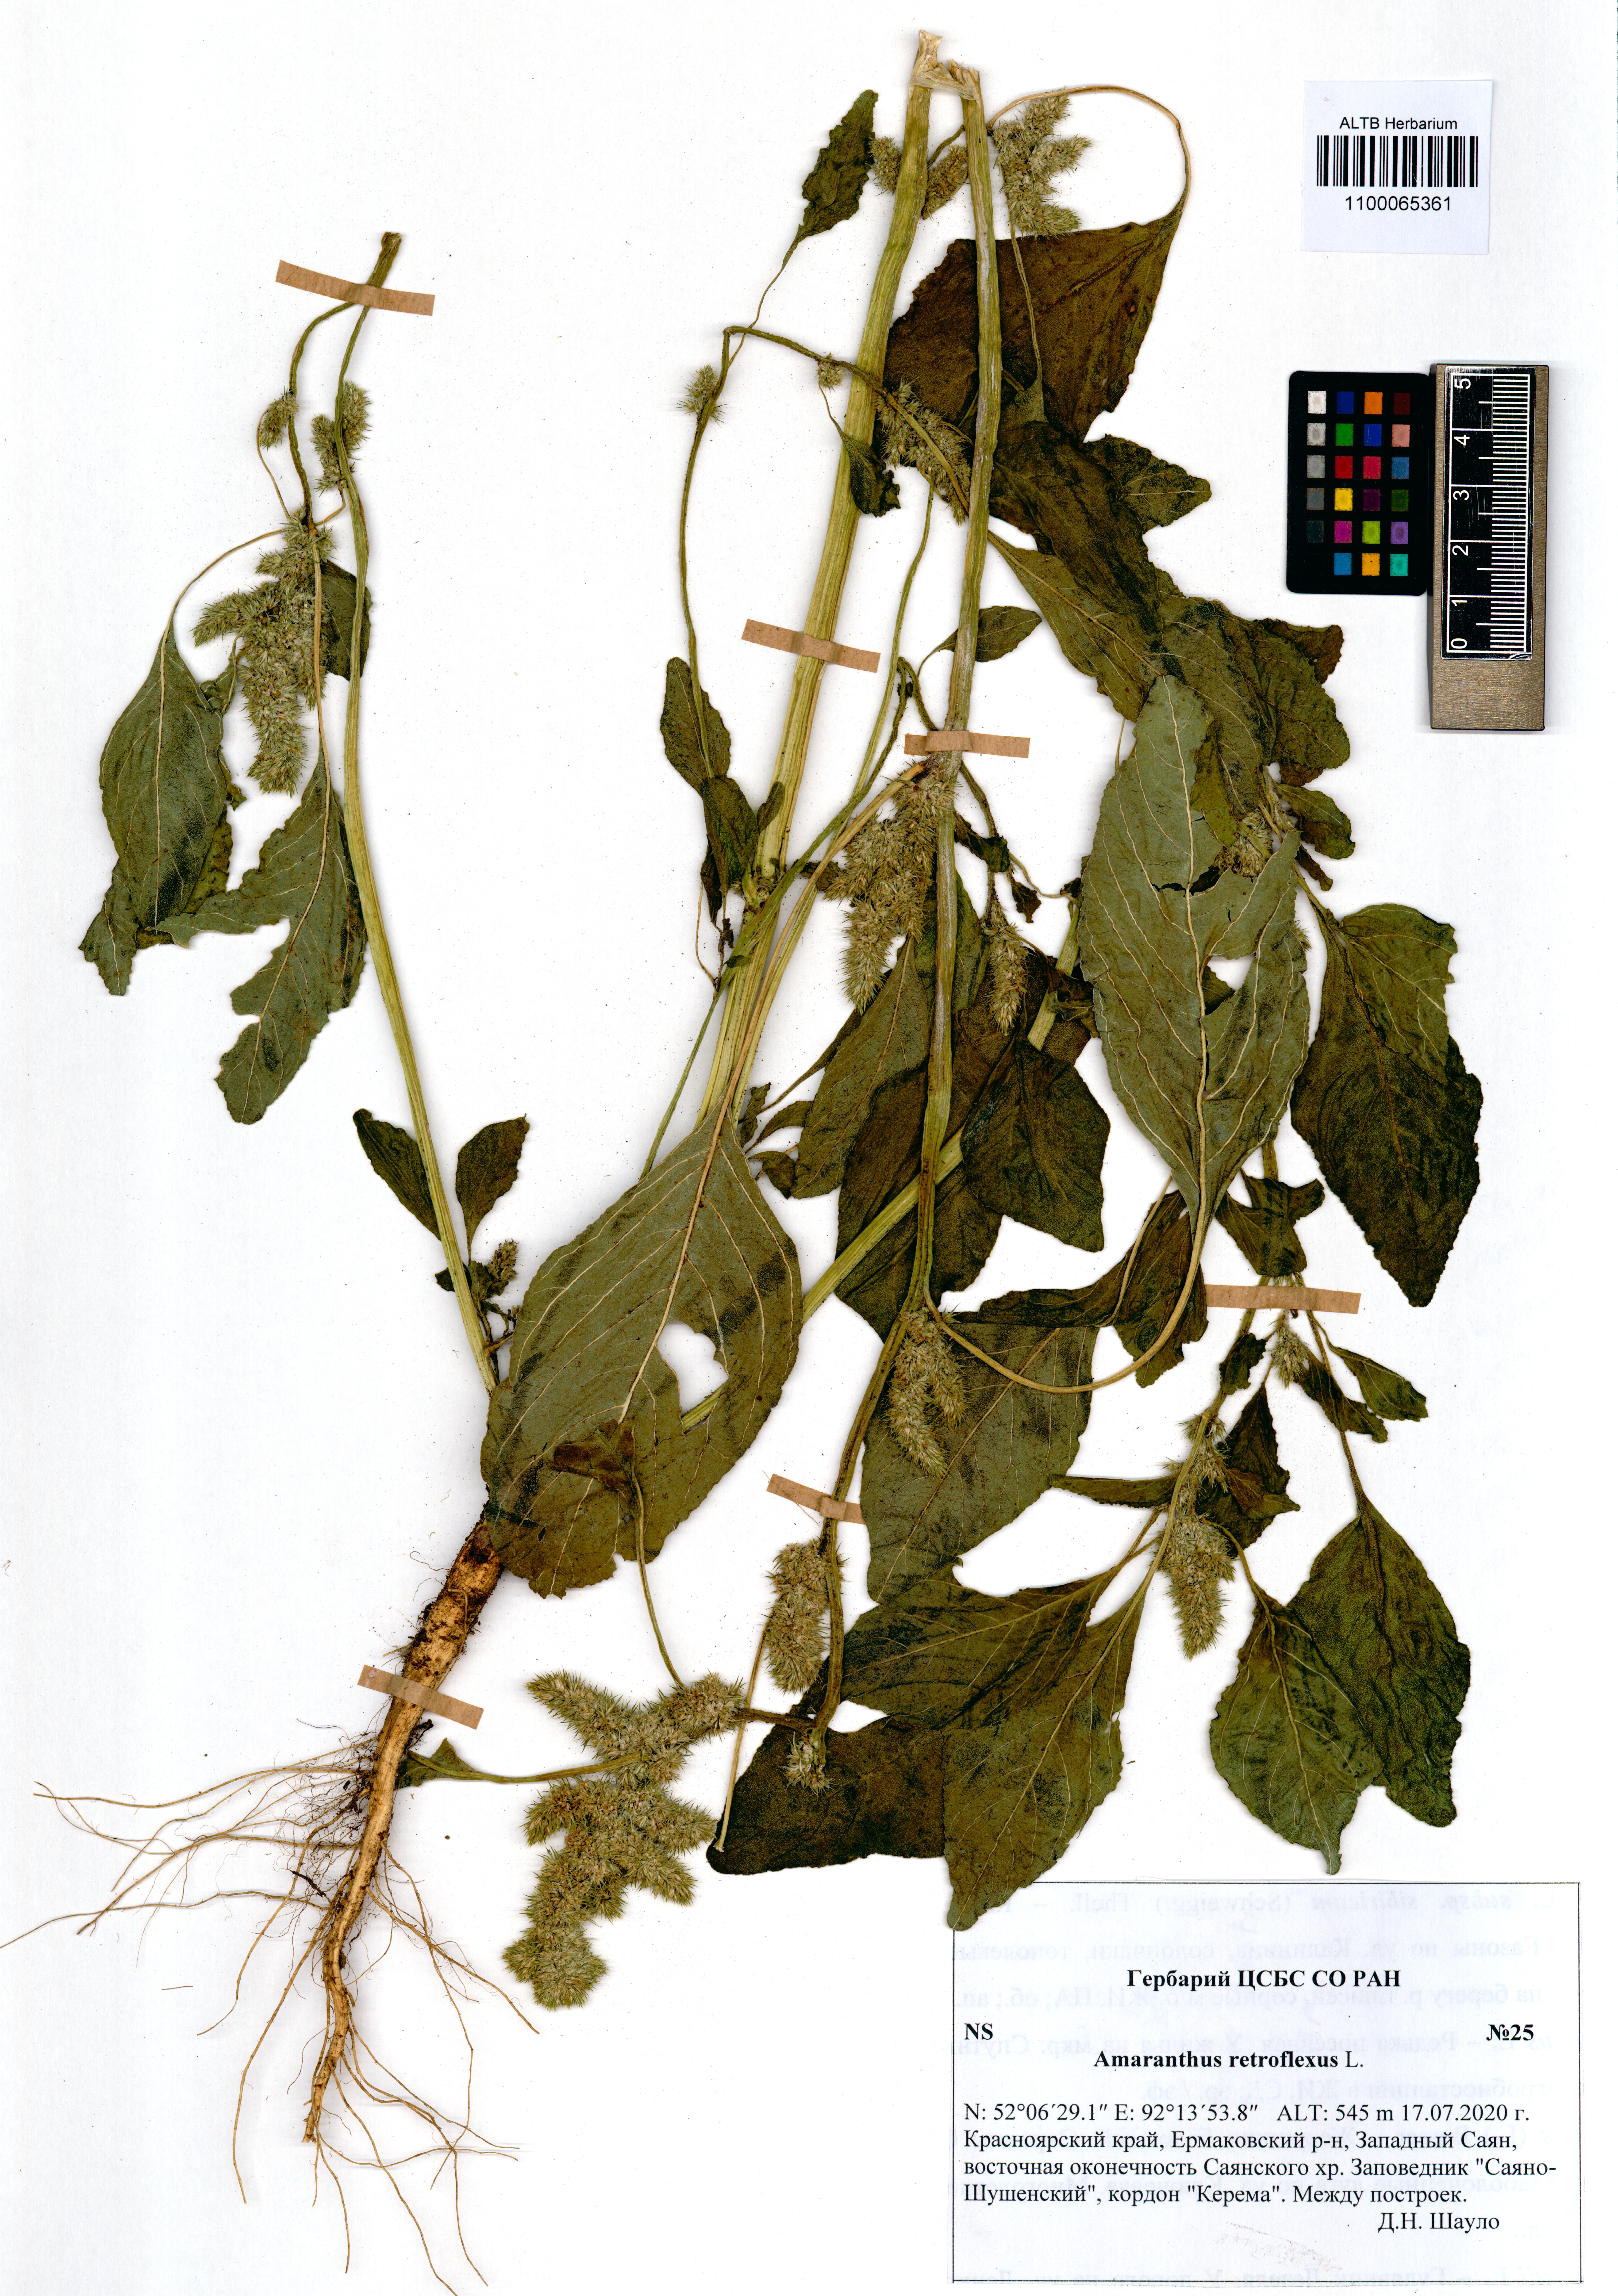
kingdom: Plantae
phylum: Tracheophyta
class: Magnoliopsida
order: Caryophyllales
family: Amaranthaceae
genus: Amaranthus
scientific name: Amaranthus retroflexus
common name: Redroot amaranth
